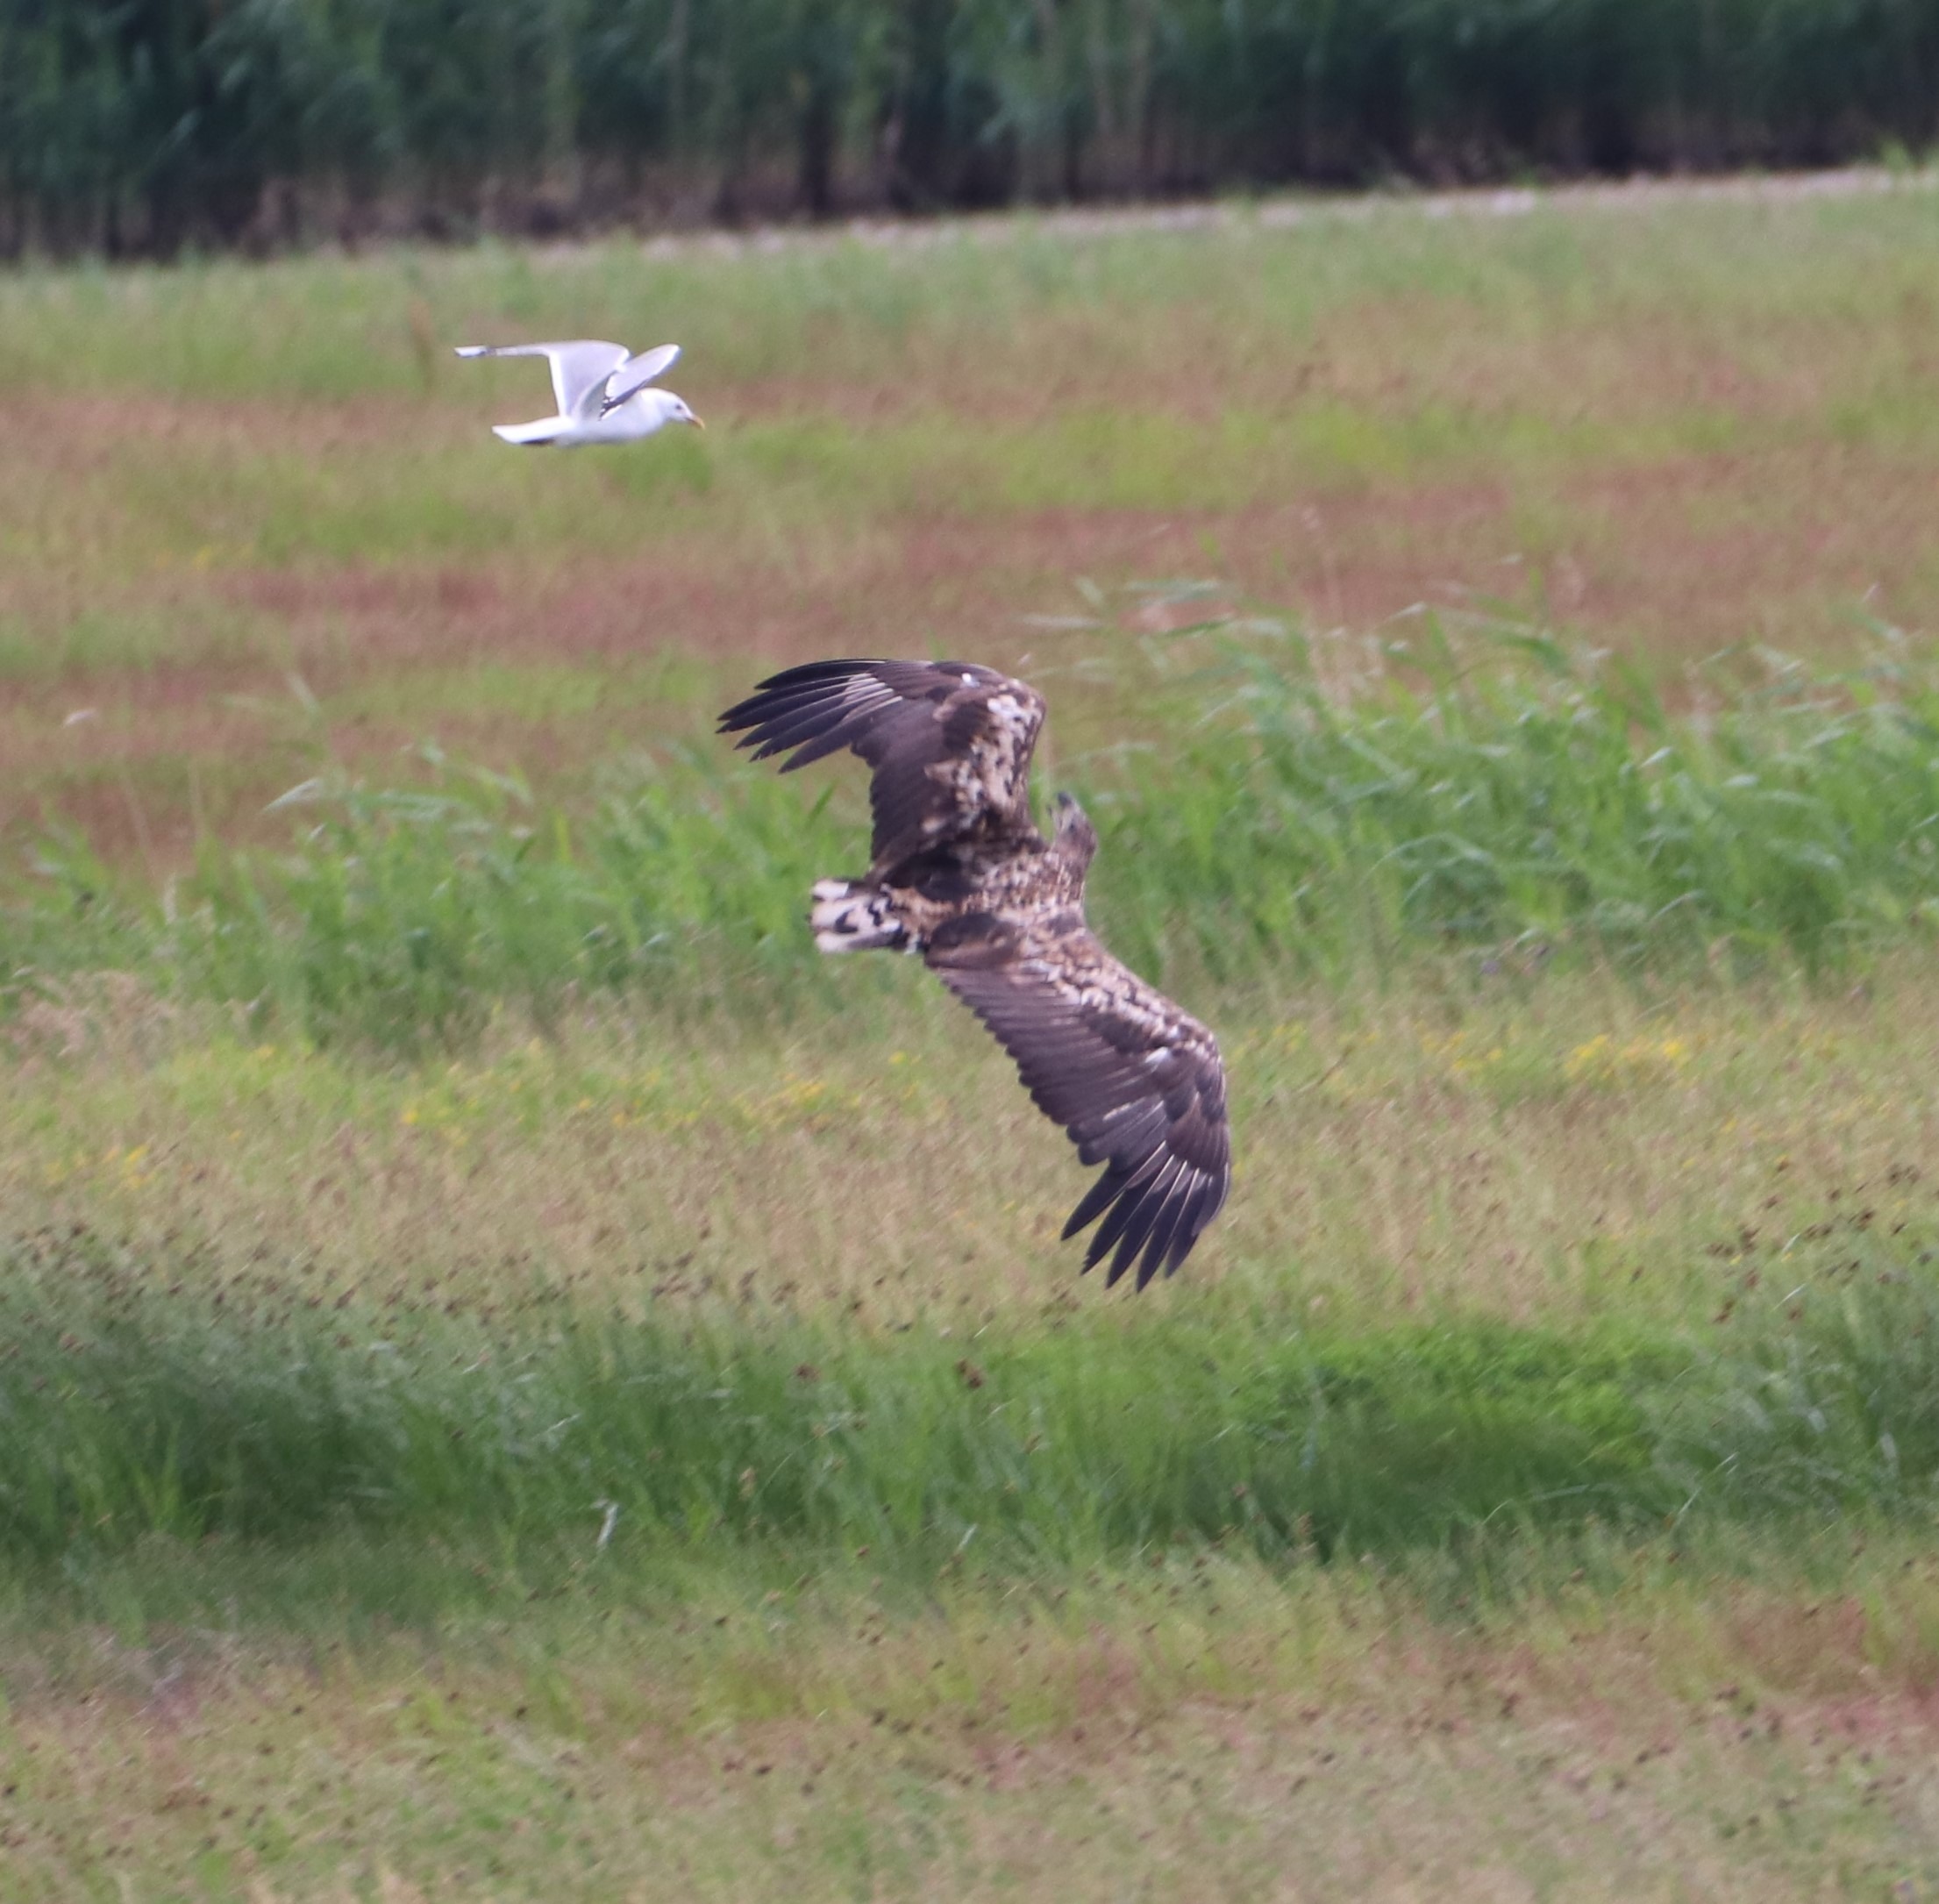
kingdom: Animalia
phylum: Chordata
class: Aves
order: Accipitriformes
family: Accipitridae
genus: Haliaeetus
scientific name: Haliaeetus albicilla
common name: Havørn
